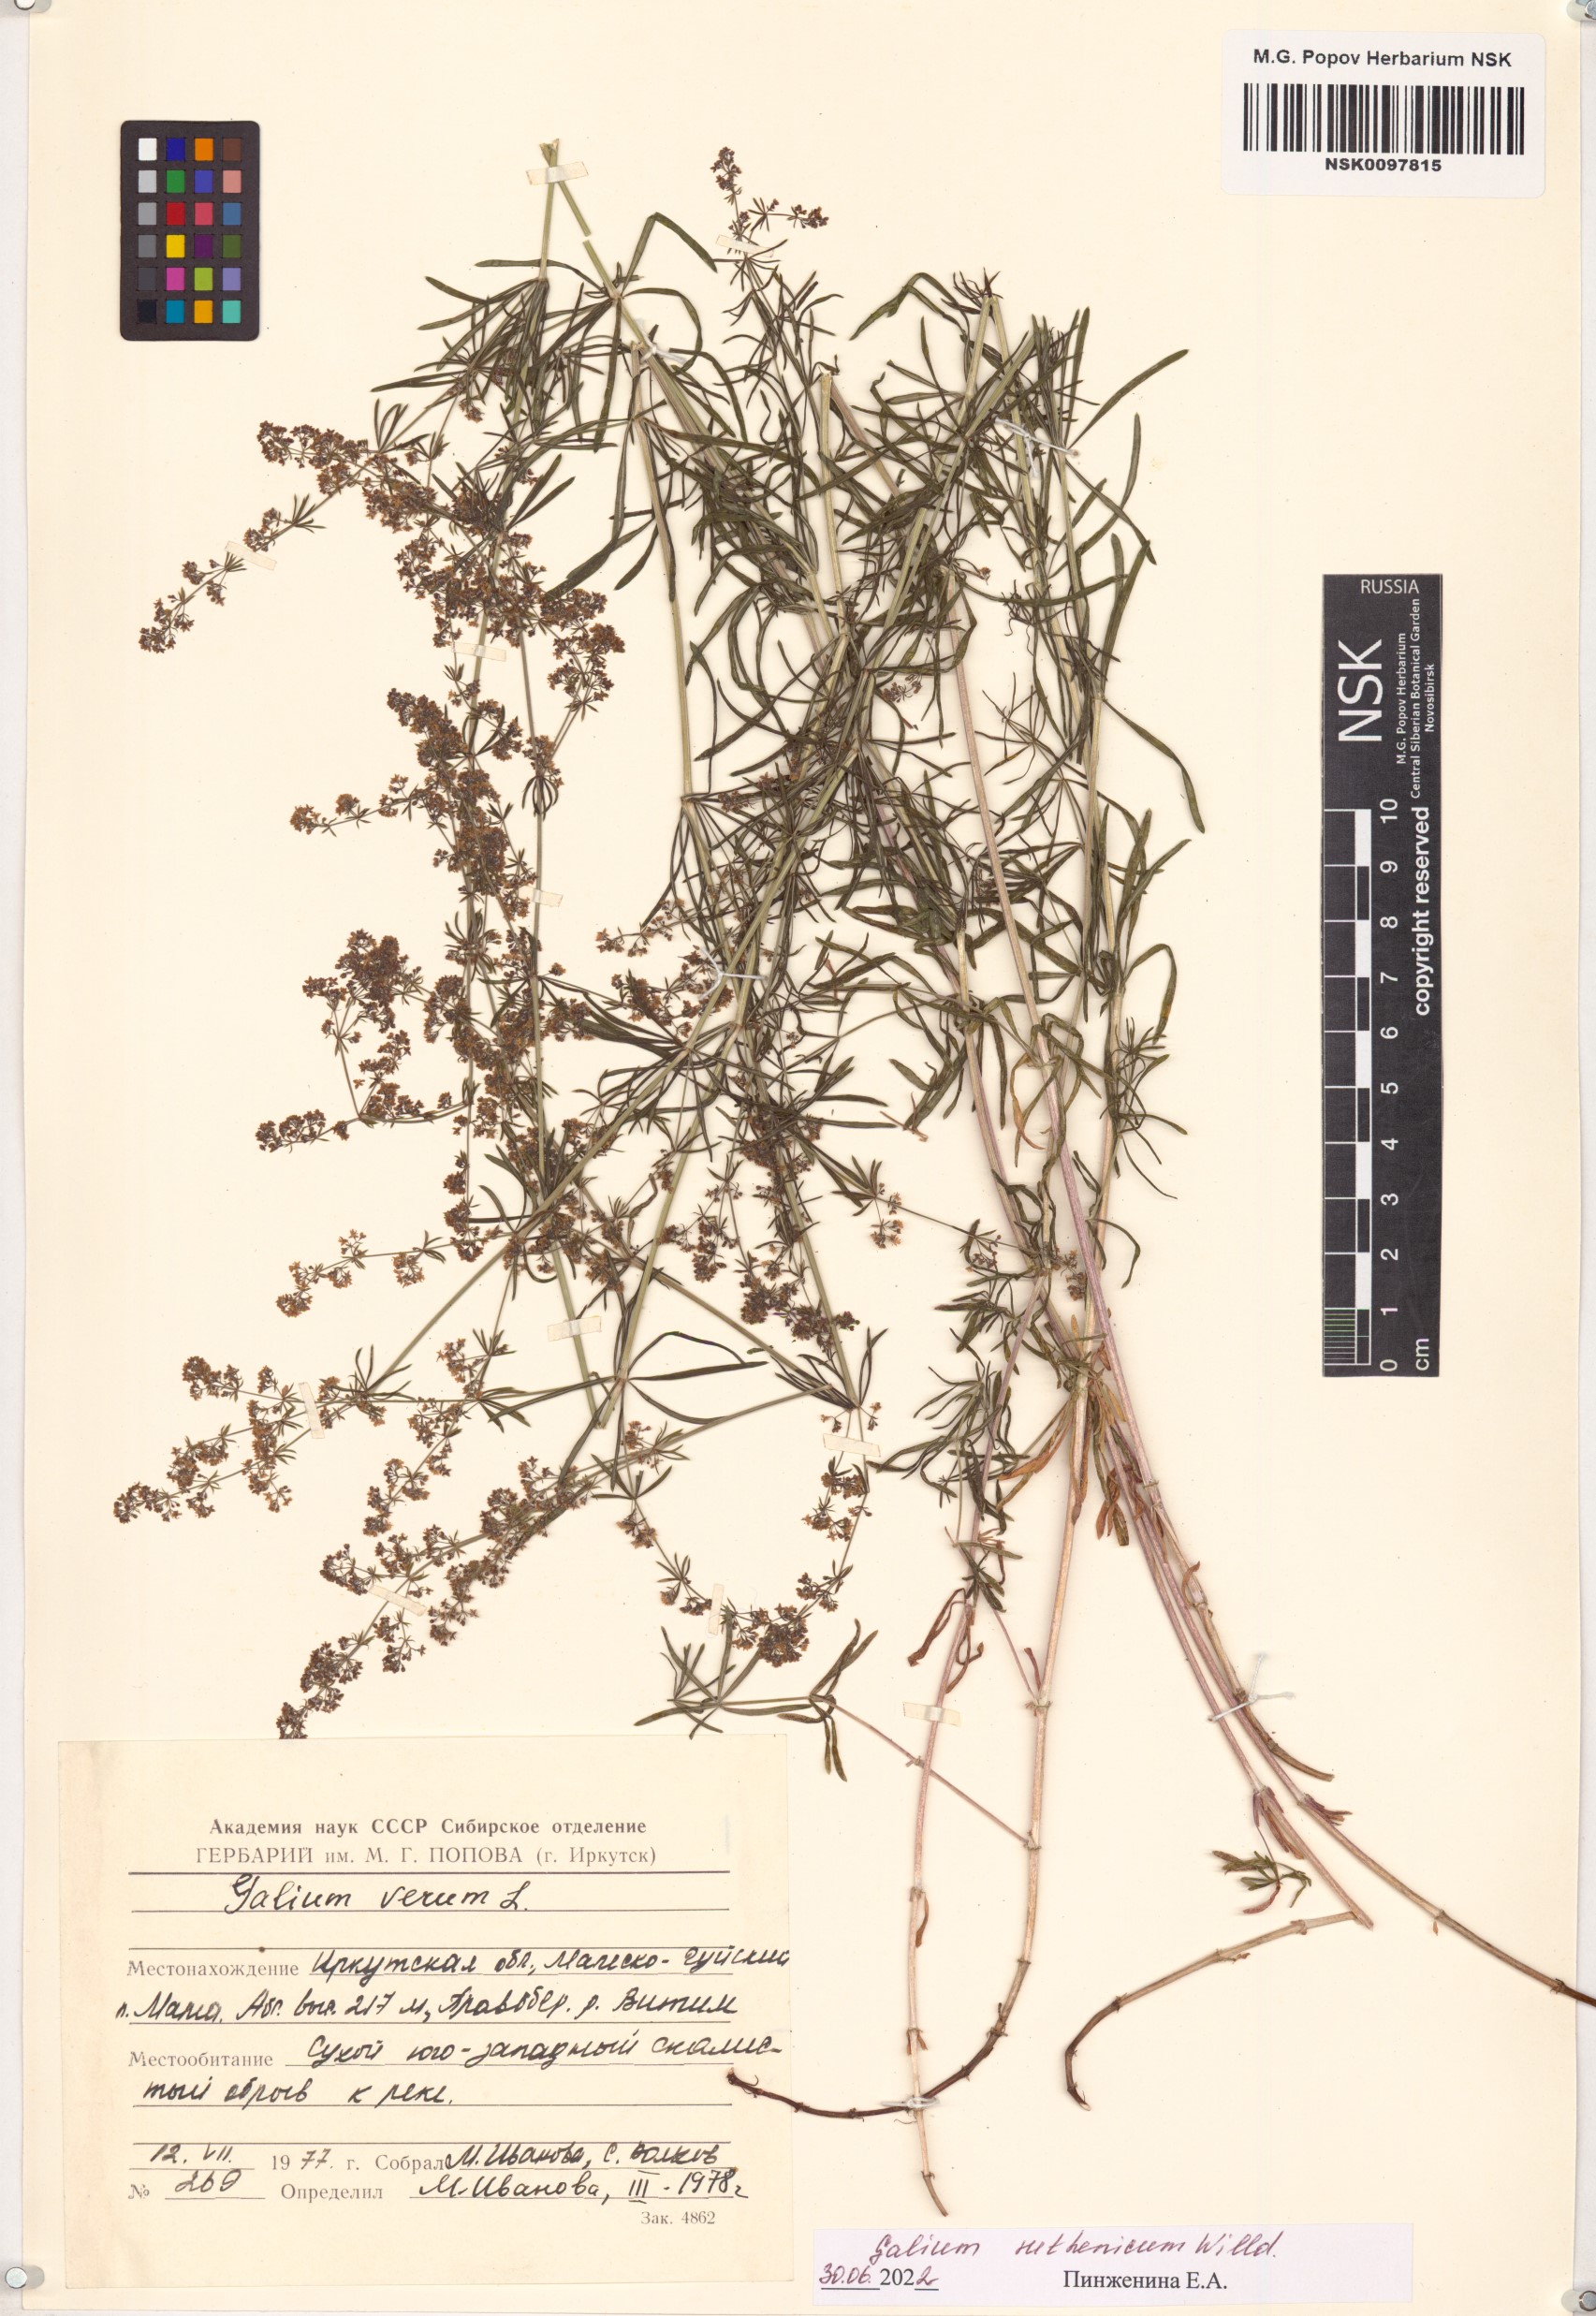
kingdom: Plantae
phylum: Tracheophyta
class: Magnoliopsida
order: Gentianales
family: Rubiaceae
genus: Galium
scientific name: Galium verum
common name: Lady's bedstraw
